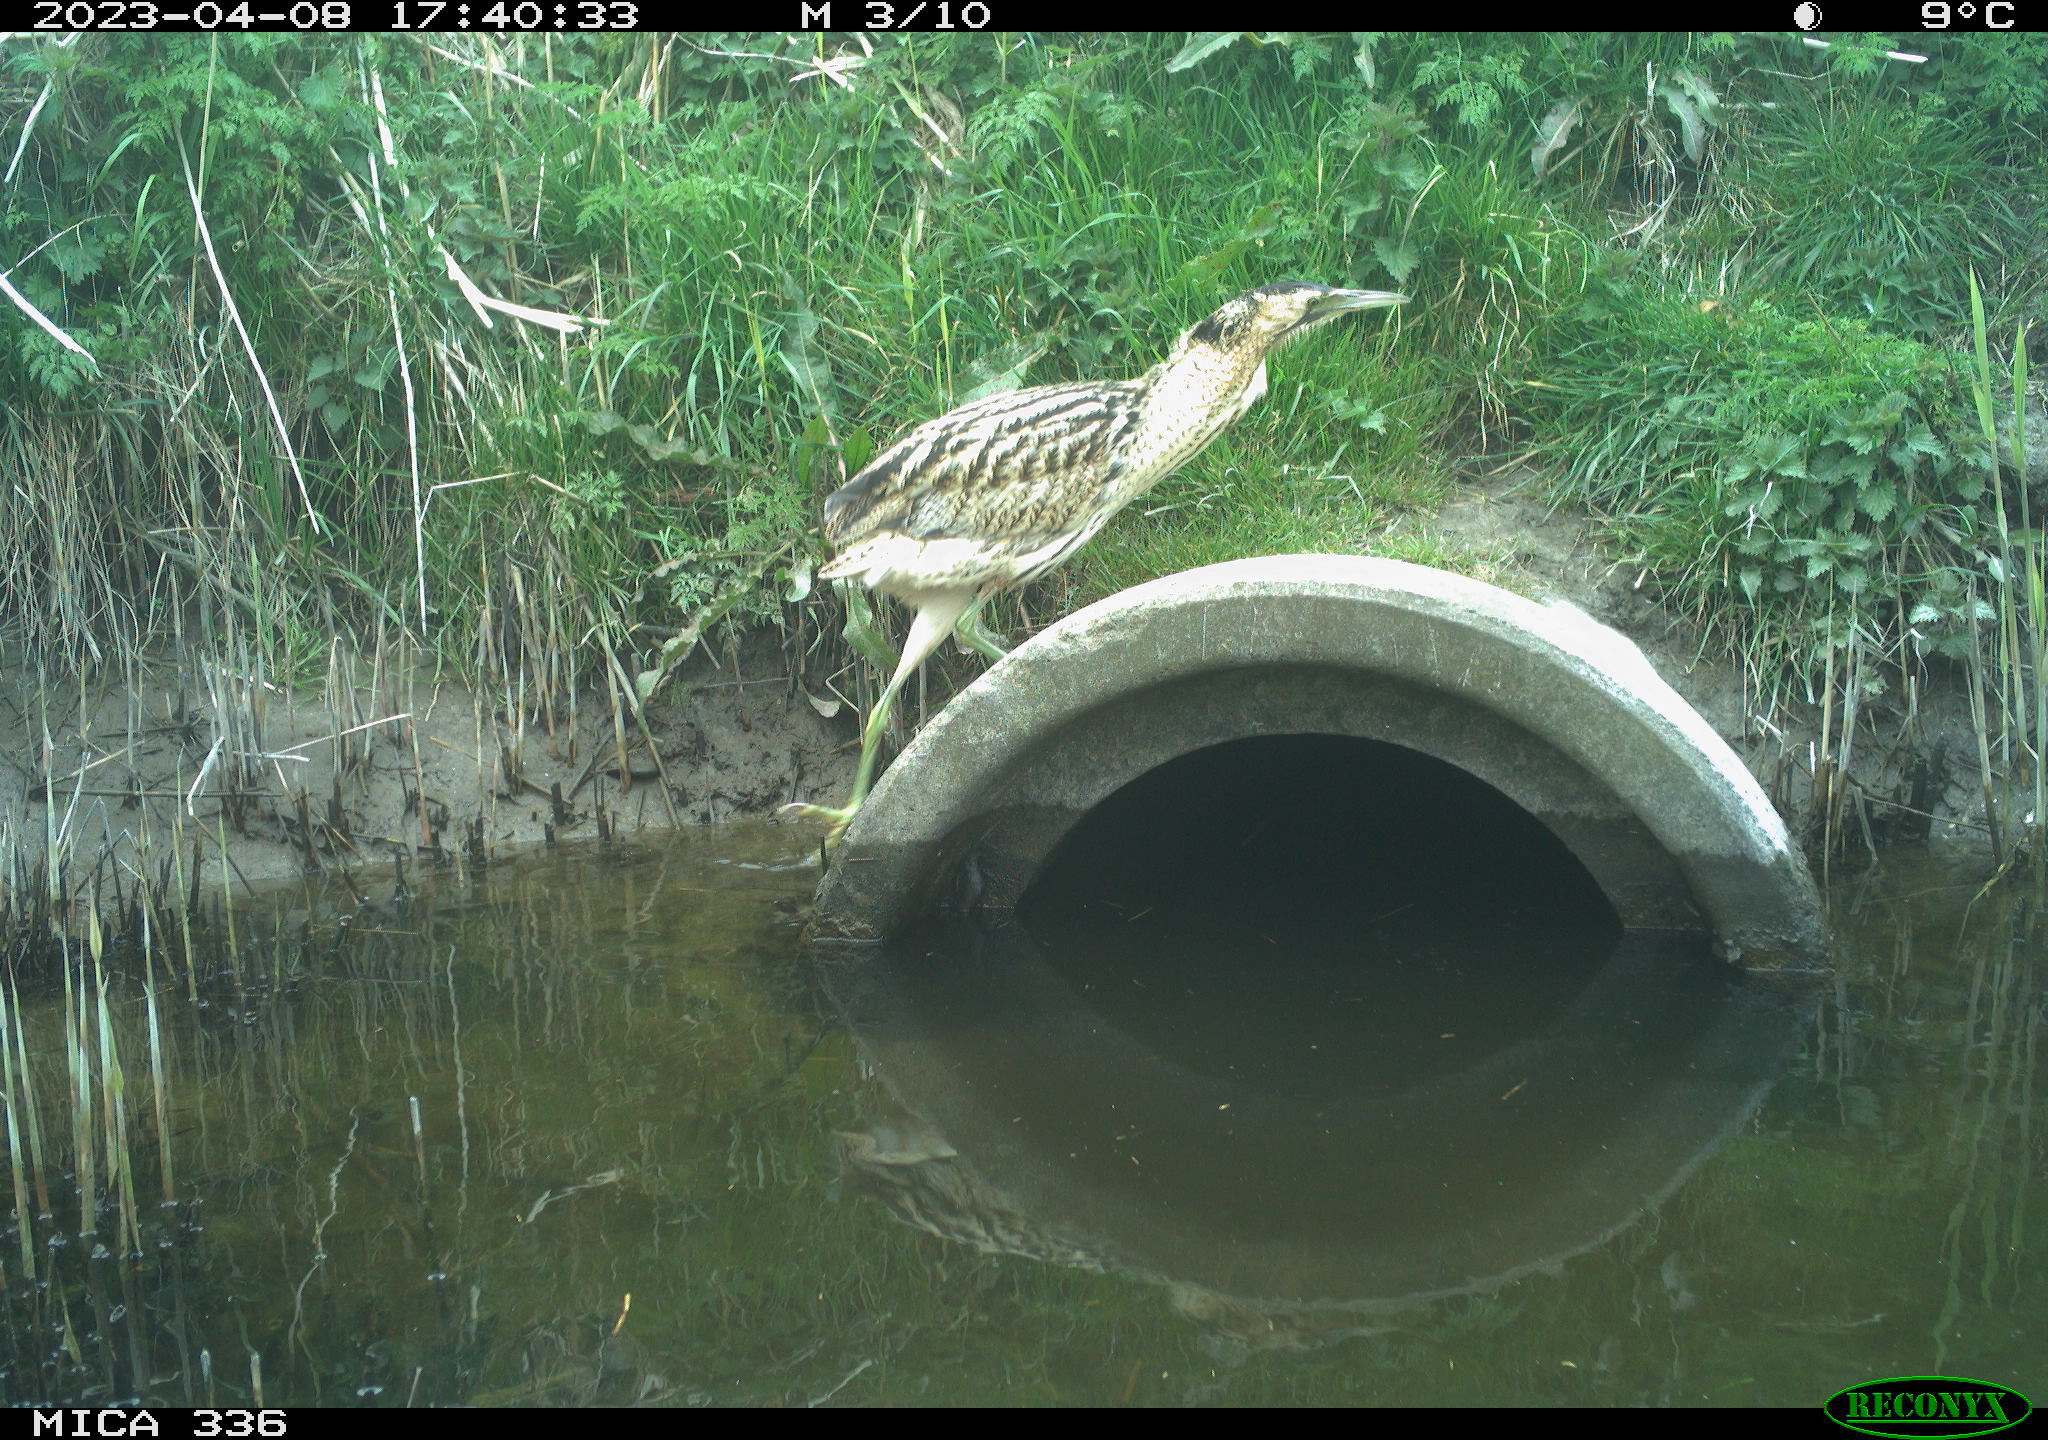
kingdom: Animalia
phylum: Chordata
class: Aves
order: Pelecaniformes
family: Ardeidae
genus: Botaurus
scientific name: Botaurus
